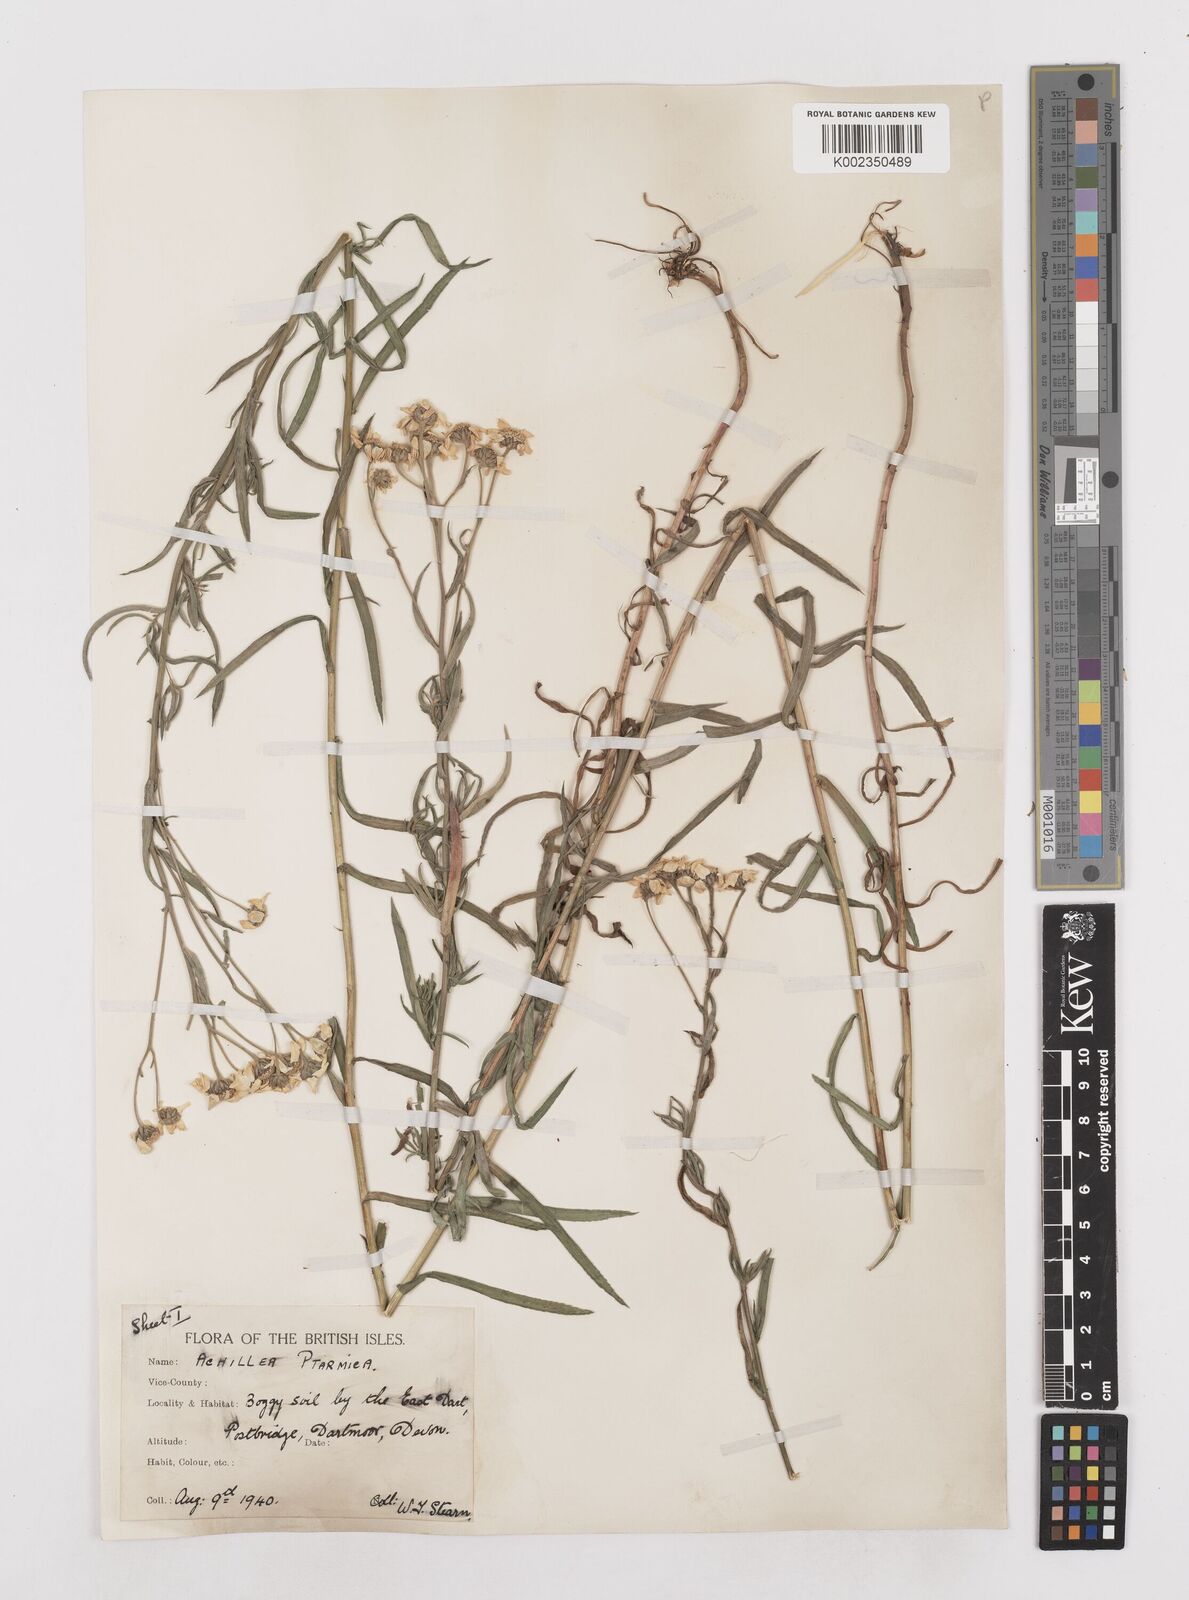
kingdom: Plantae
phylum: Tracheophyta
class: Magnoliopsida
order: Asterales
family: Asteraceae
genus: Achillea
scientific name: Achillea ptarmica
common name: Sneezeweed
